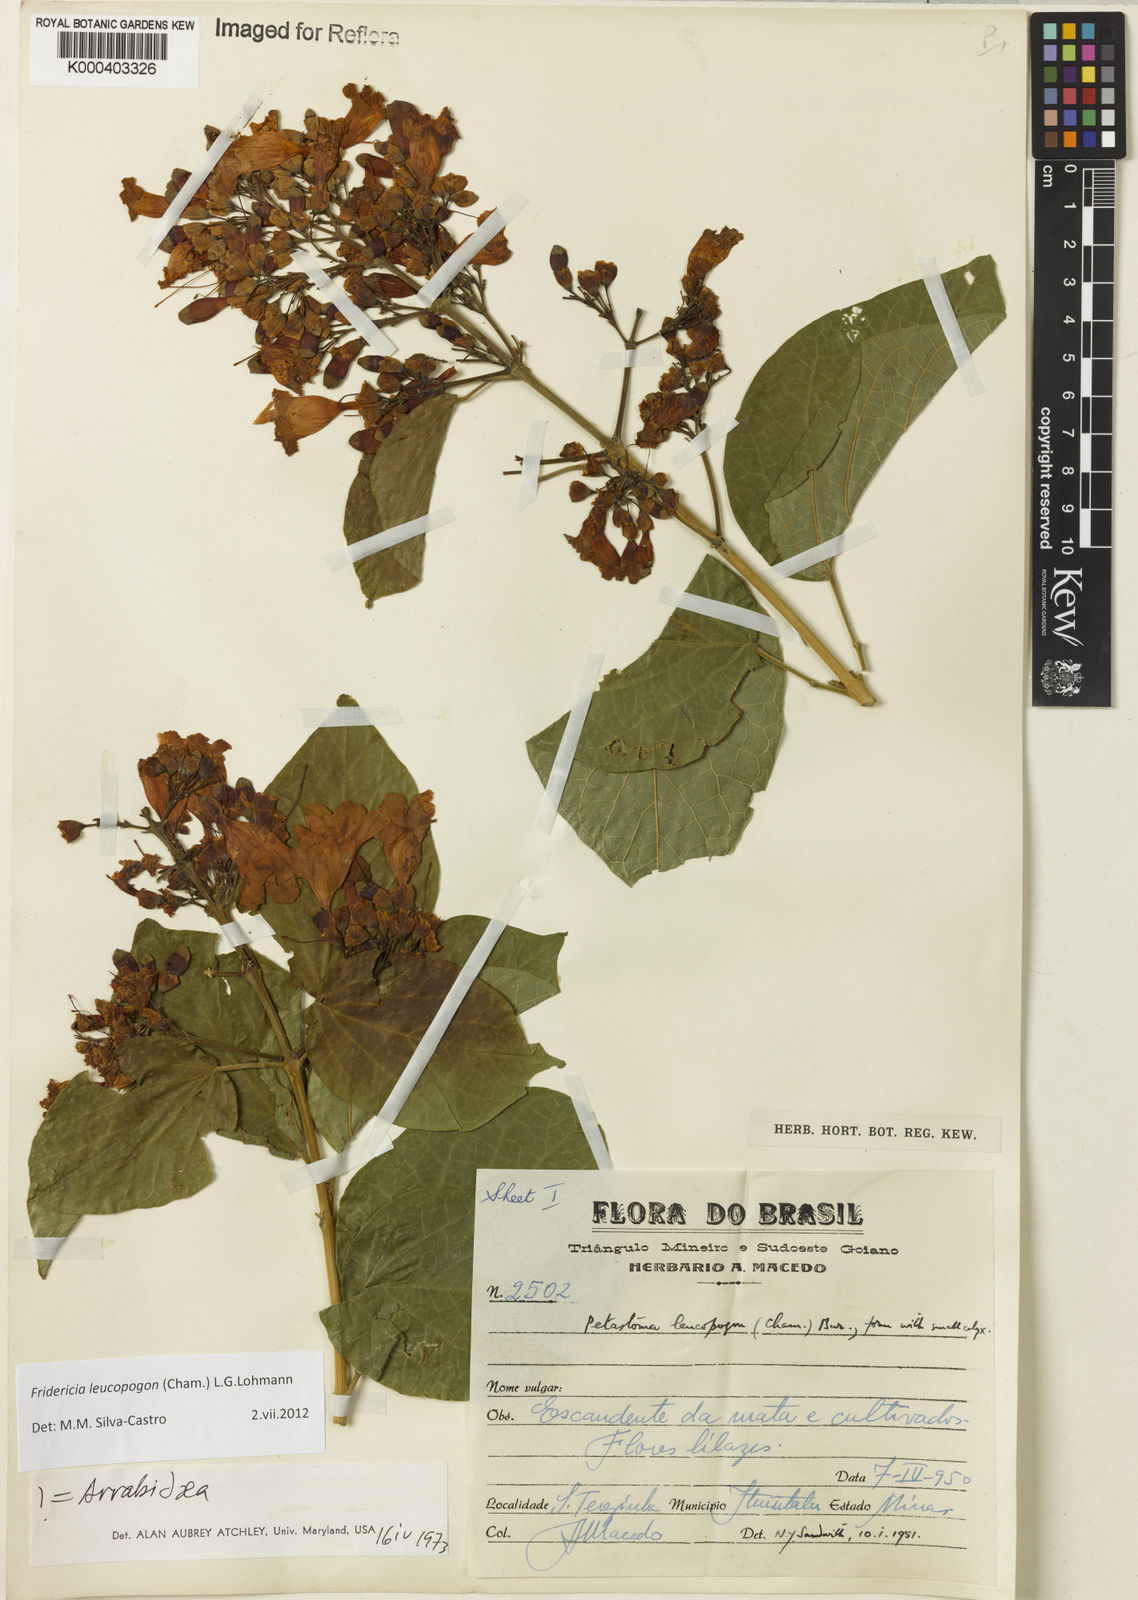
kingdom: Plantae
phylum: Tracheophyta
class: Magnoliopsida
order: Lamiales
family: Bignoniaceae
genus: Fridericia
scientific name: Fridericia leucopogon
